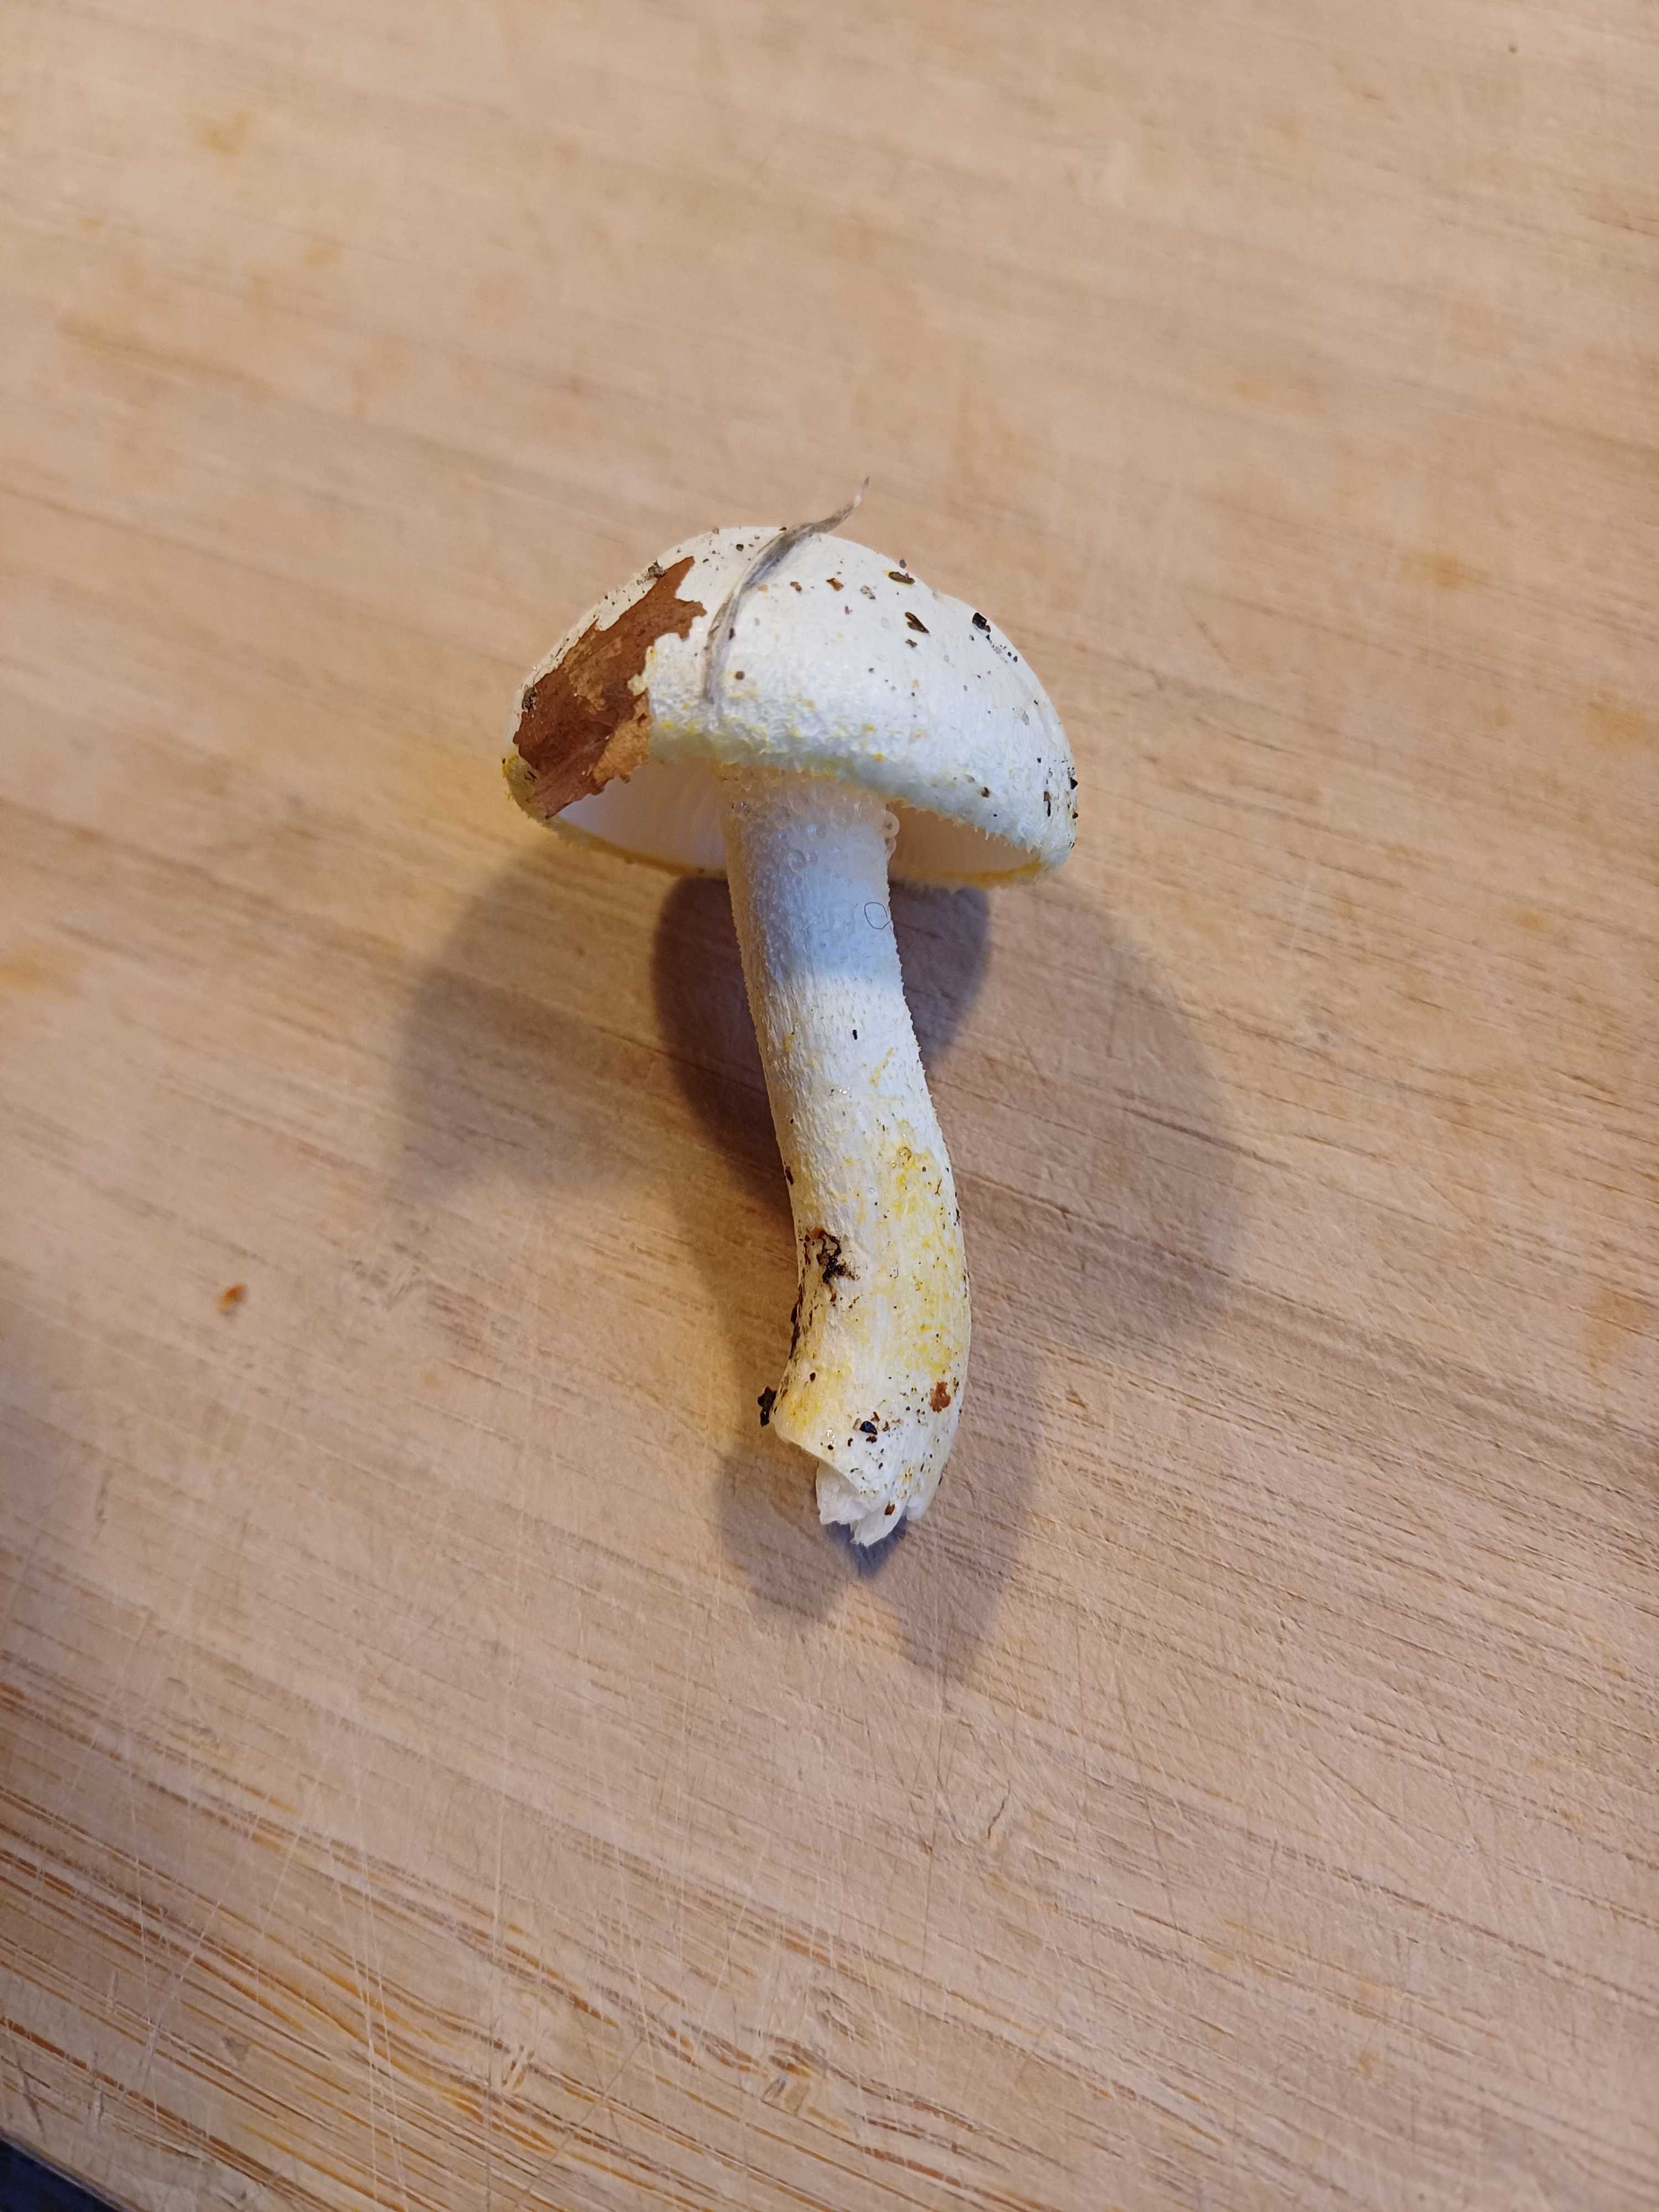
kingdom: Fungi
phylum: Basidiomycota
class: Agaricomycetes
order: Agaricales
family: Hygrophoraceae
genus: Hygrophorus
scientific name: Hygrophorus chrysodon
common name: gulfnugget sneglehat
